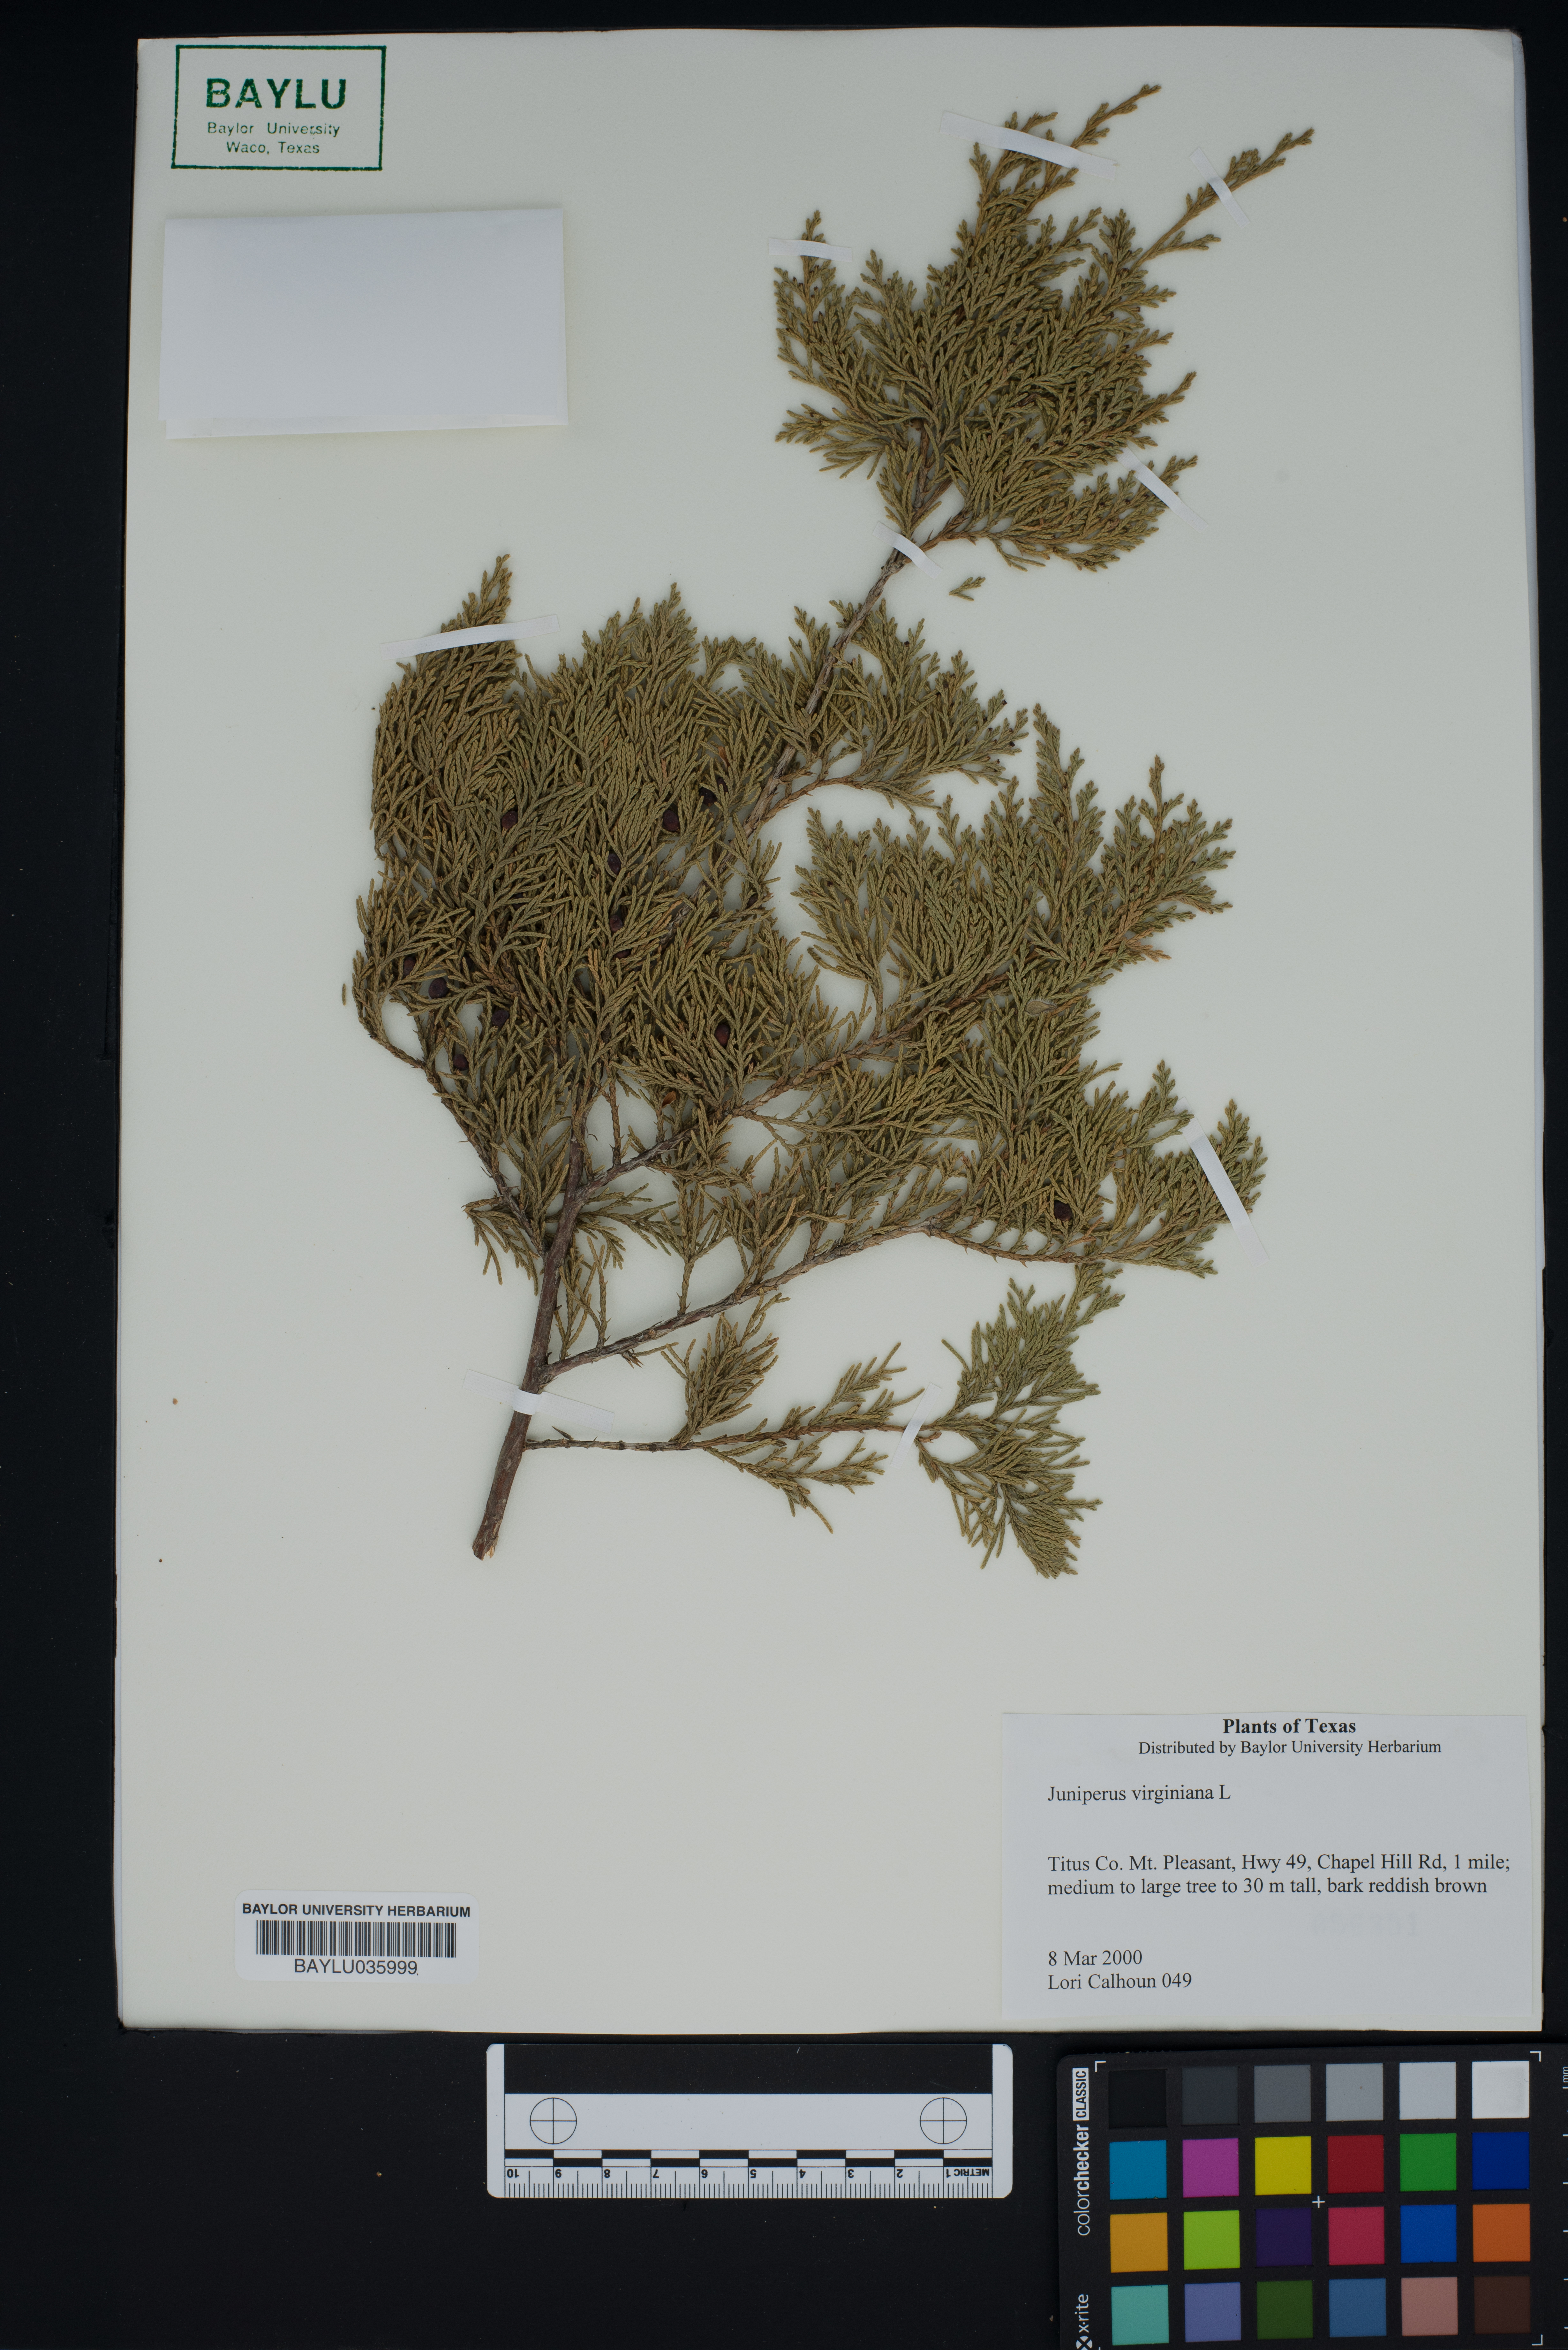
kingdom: Plantae
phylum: Tracheophyta
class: Pinopsida
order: Pinales
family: Cupressaceae
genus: Juniperus
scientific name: Juniperus virginiana
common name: Red juniper
